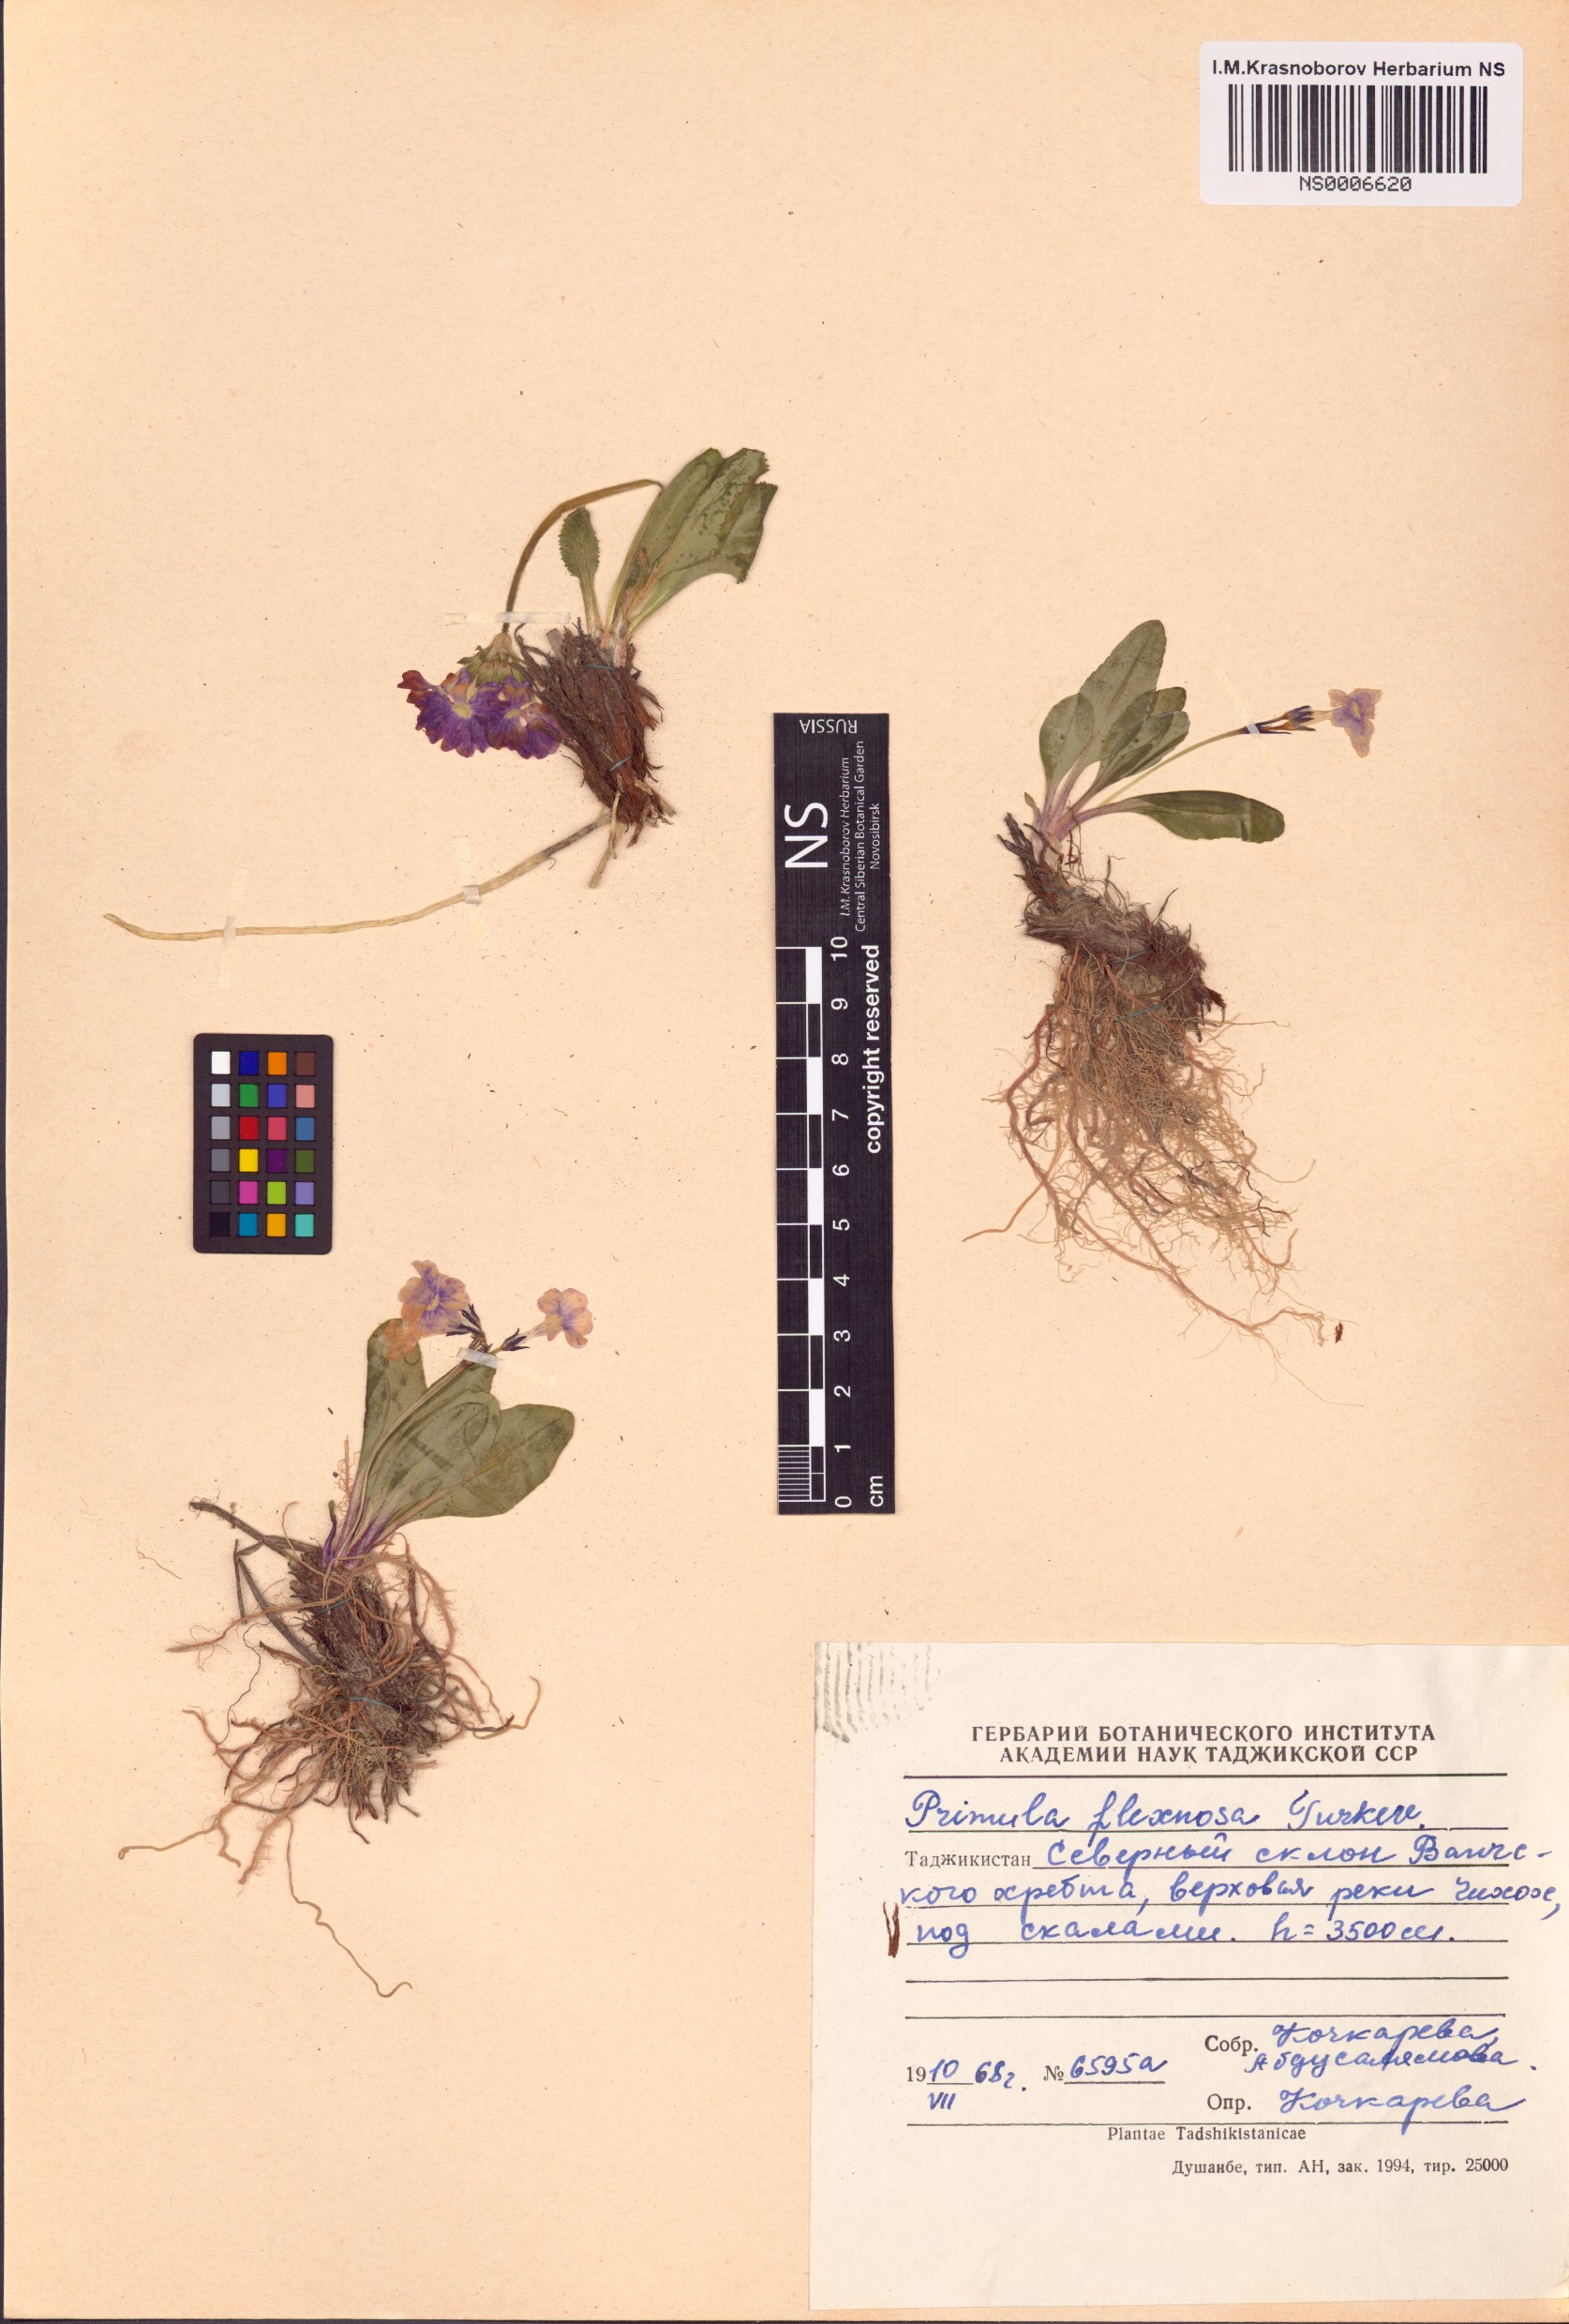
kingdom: Plantae
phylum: Tracheophyta
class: Magnoliopsida
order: Ericales
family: Primulaceae
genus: Primula
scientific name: Primula flexuosa
